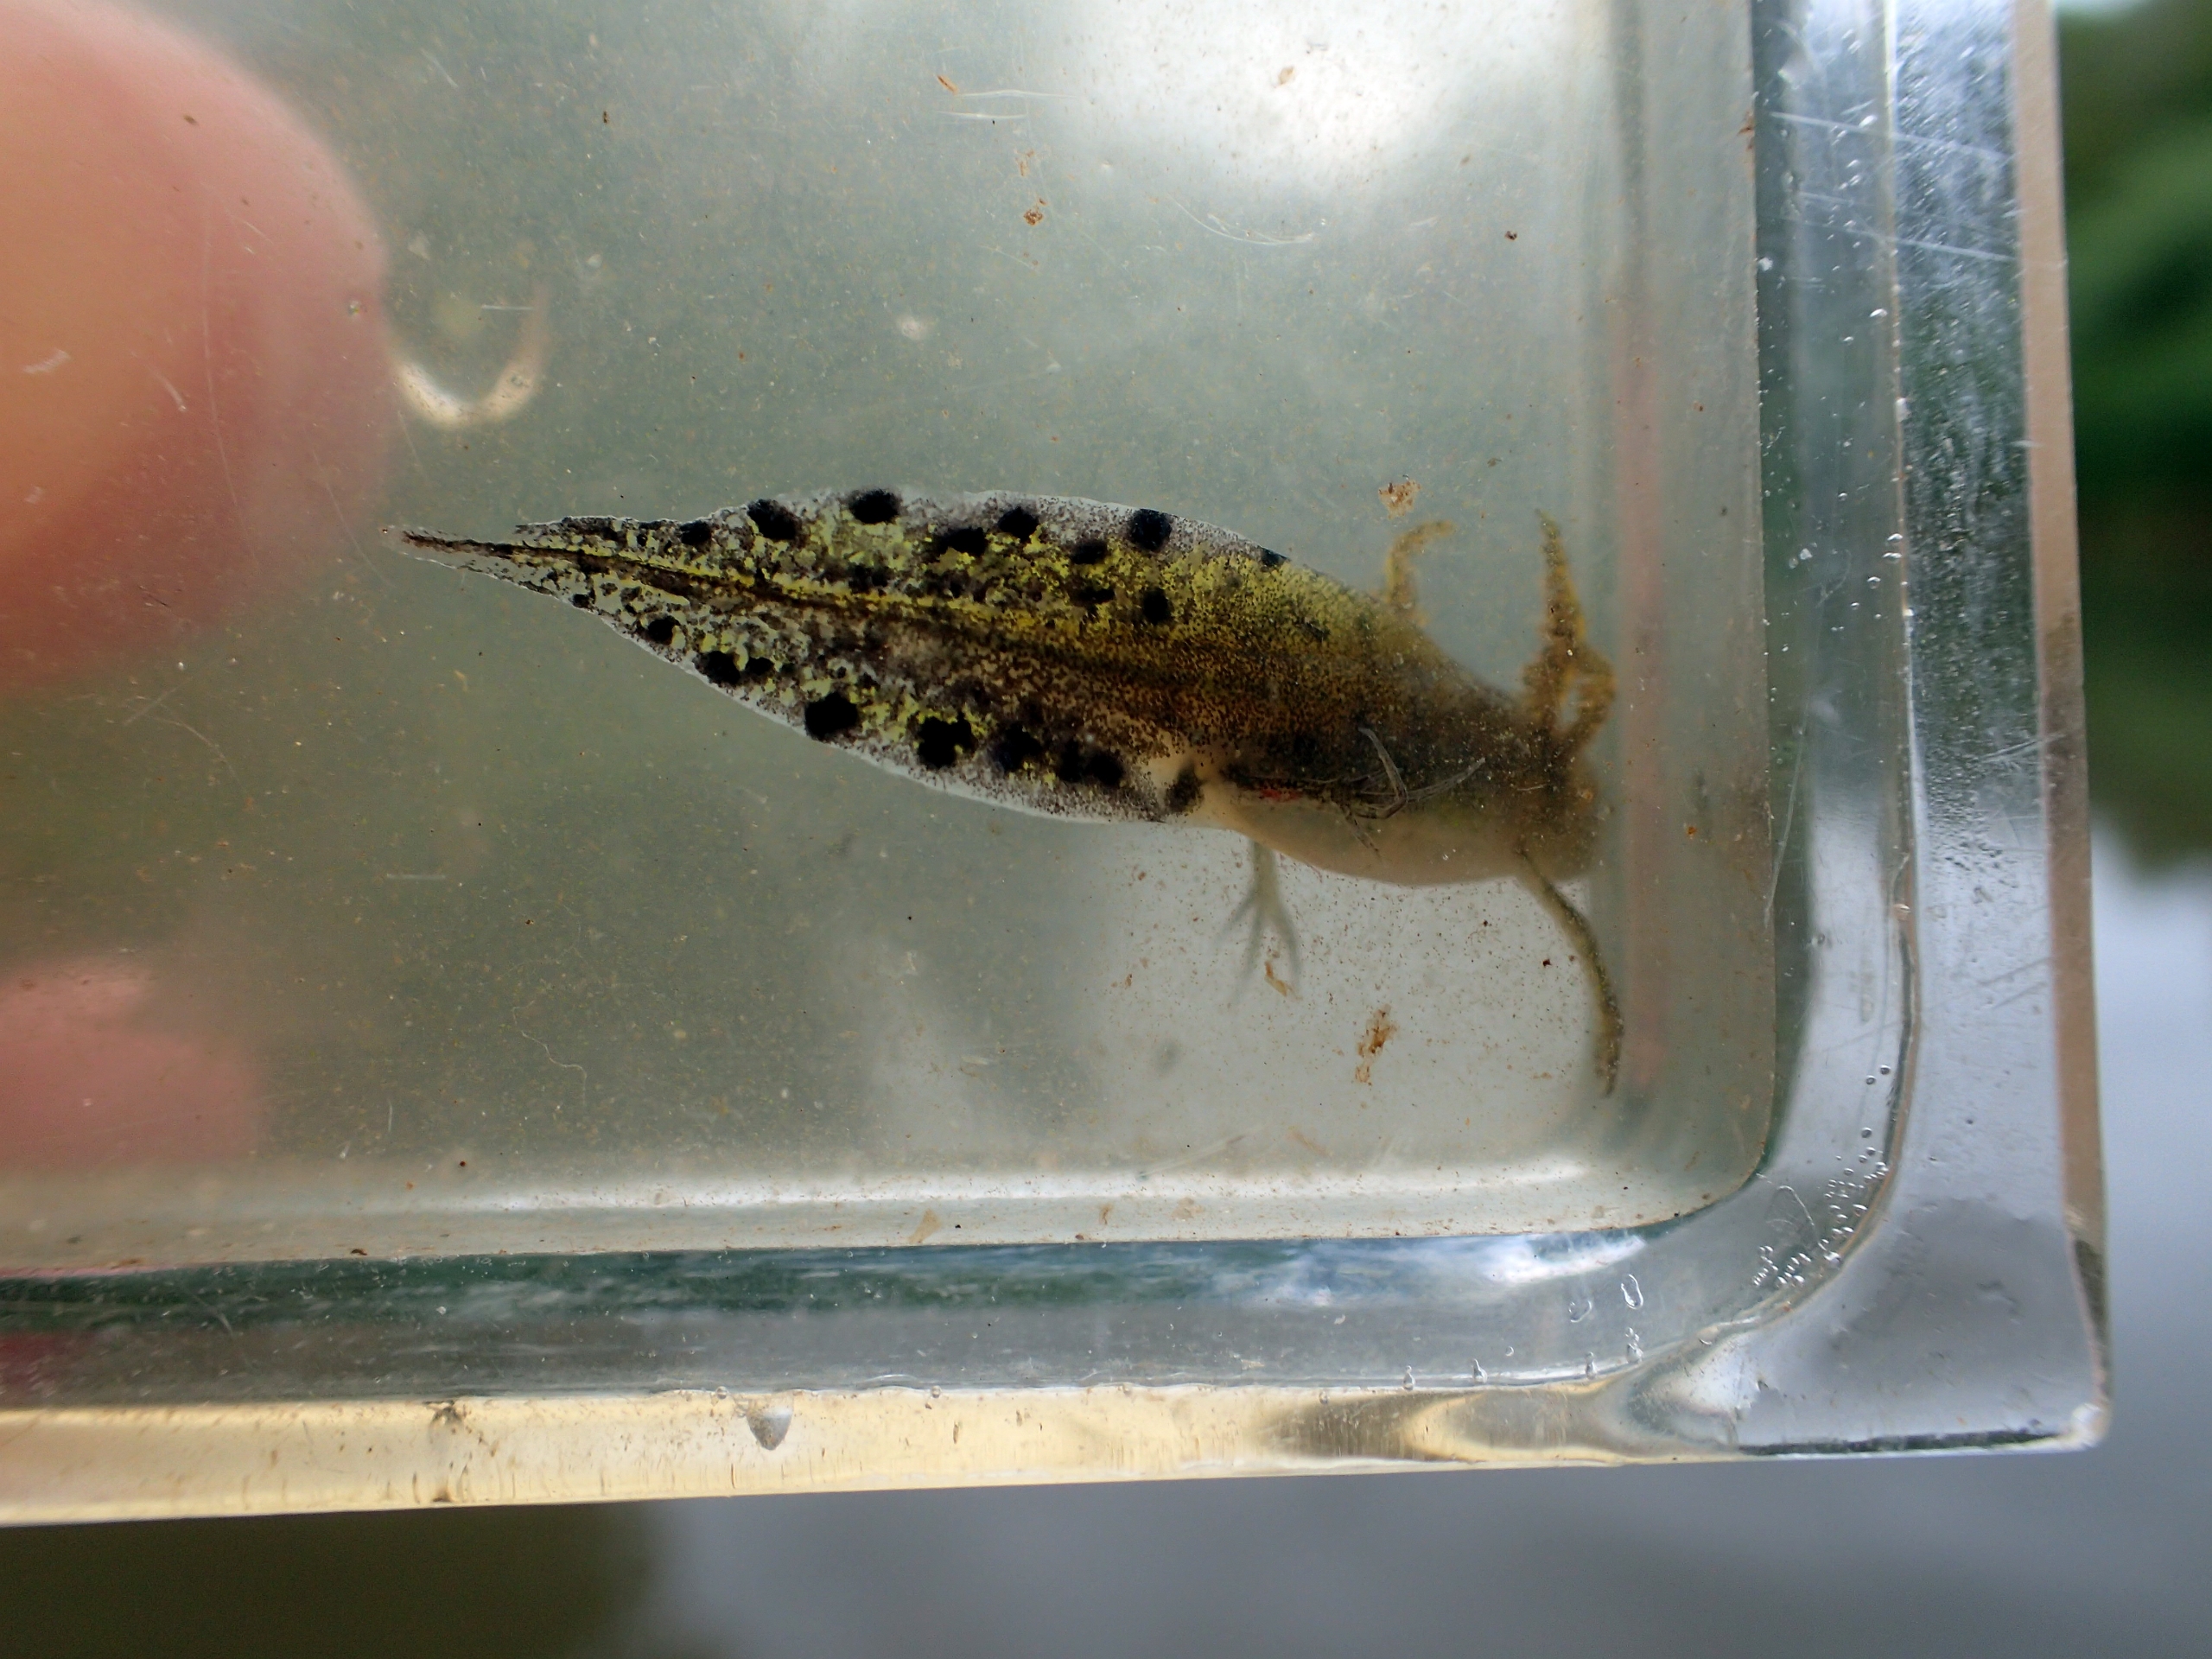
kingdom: Animalia
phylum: Chordata
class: Amphibia
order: Caudata
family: Salamandridae
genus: Triturus
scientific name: Triturus cristatus
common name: Stor vandsalamander
